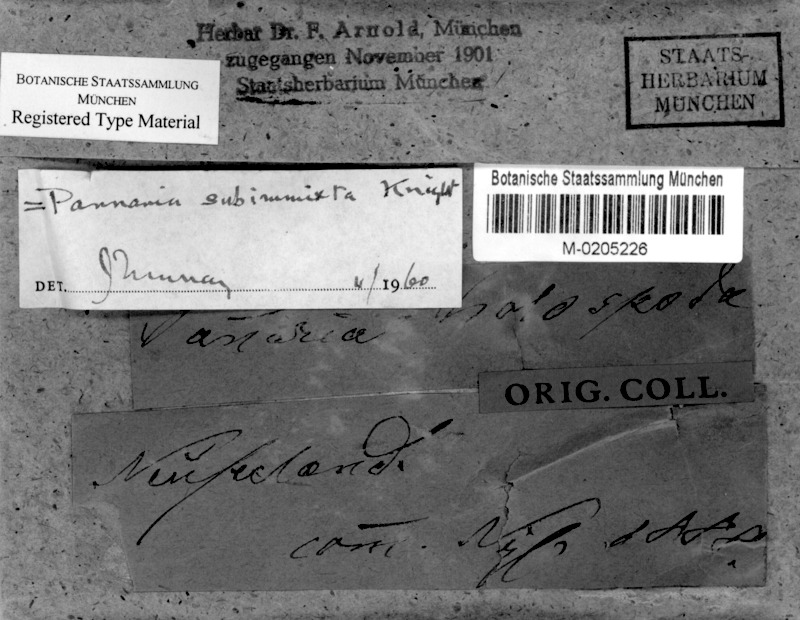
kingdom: Fungi
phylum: Ascomycota
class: Lecanoromycetes
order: Peltigerales
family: Pannariaceae
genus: Fuscopannaria
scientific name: Fuscopannaria subimmixta
